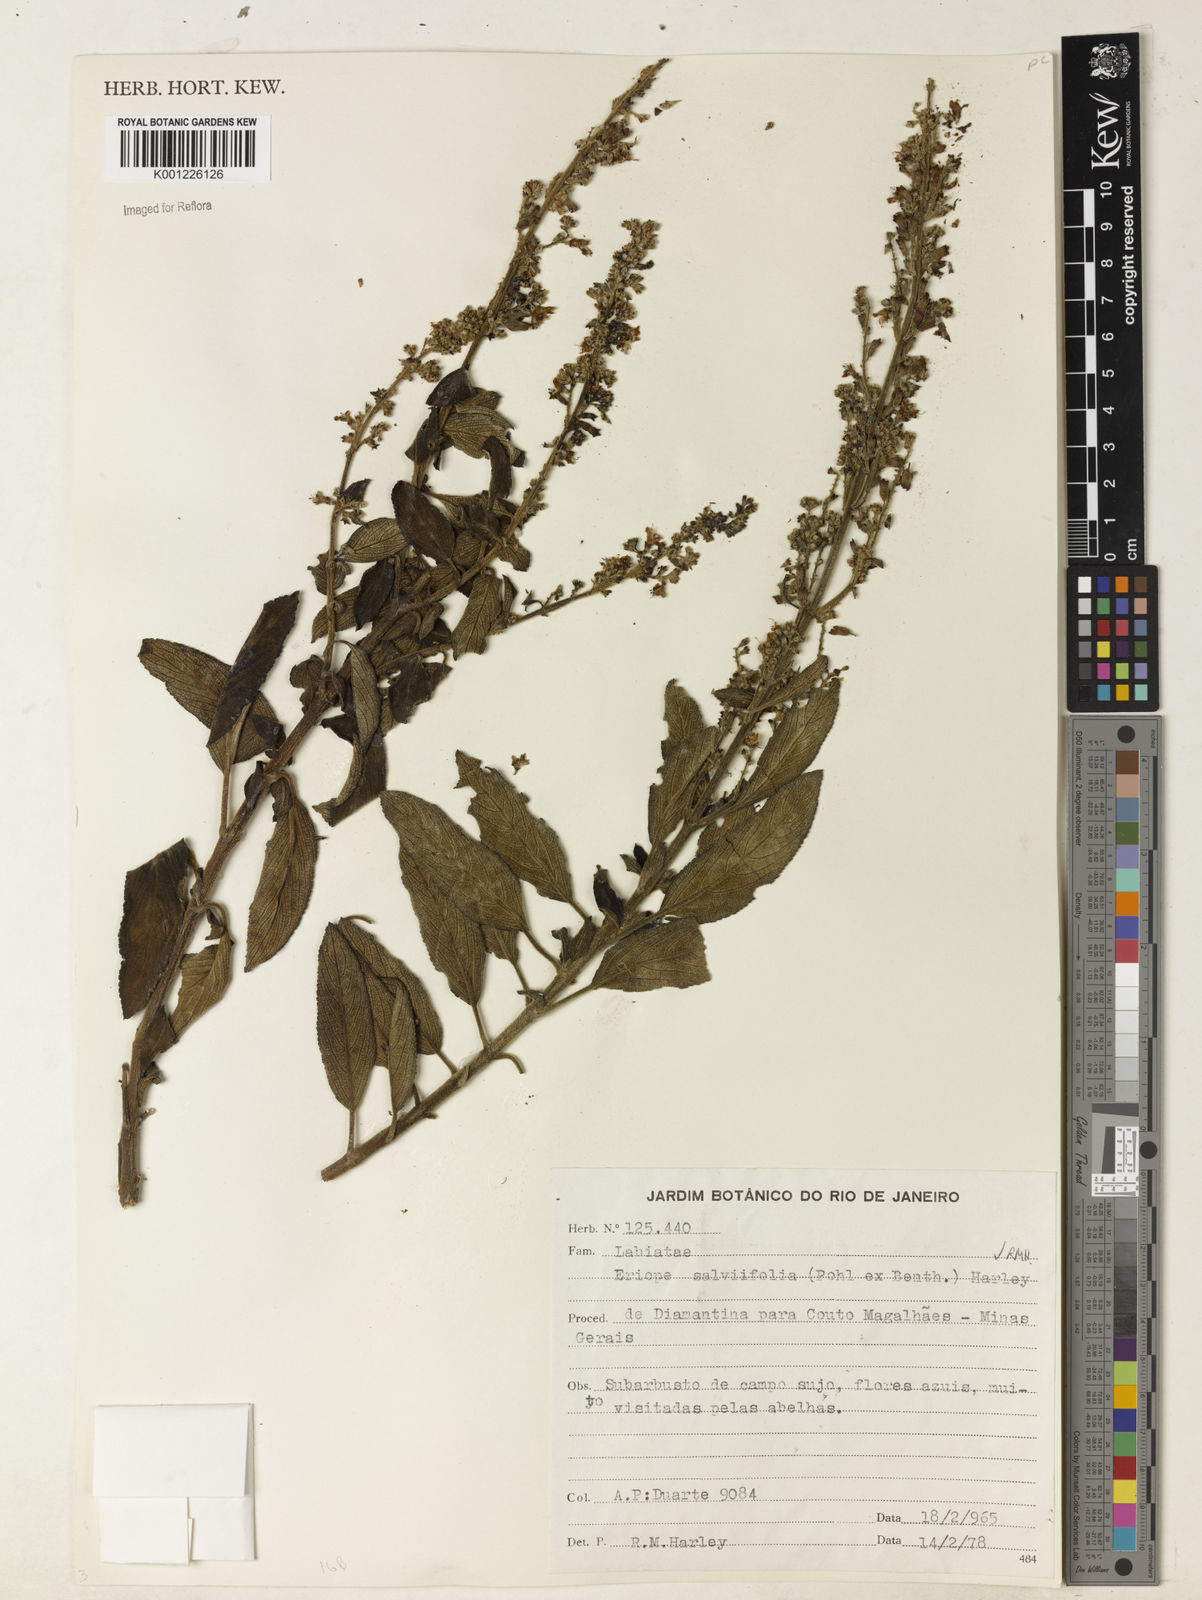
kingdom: Plantae
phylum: Tracheophyta
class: Magnoliopsida
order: Lamiales
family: Lamiaceae
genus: Eriope
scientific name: Eriope salviifolia
